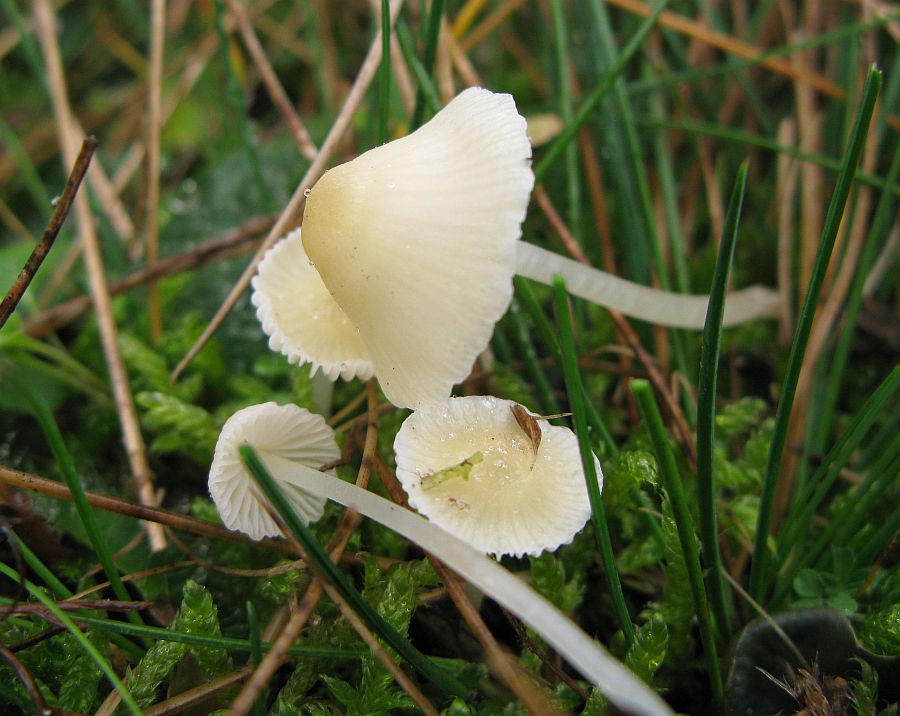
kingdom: Fungi
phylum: Basidiomycota
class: Agaricomycetes
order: Agaricales
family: Mycenaceae
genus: Atheniella
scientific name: Atheniella flavoalba
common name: gulhvid huesvamp
